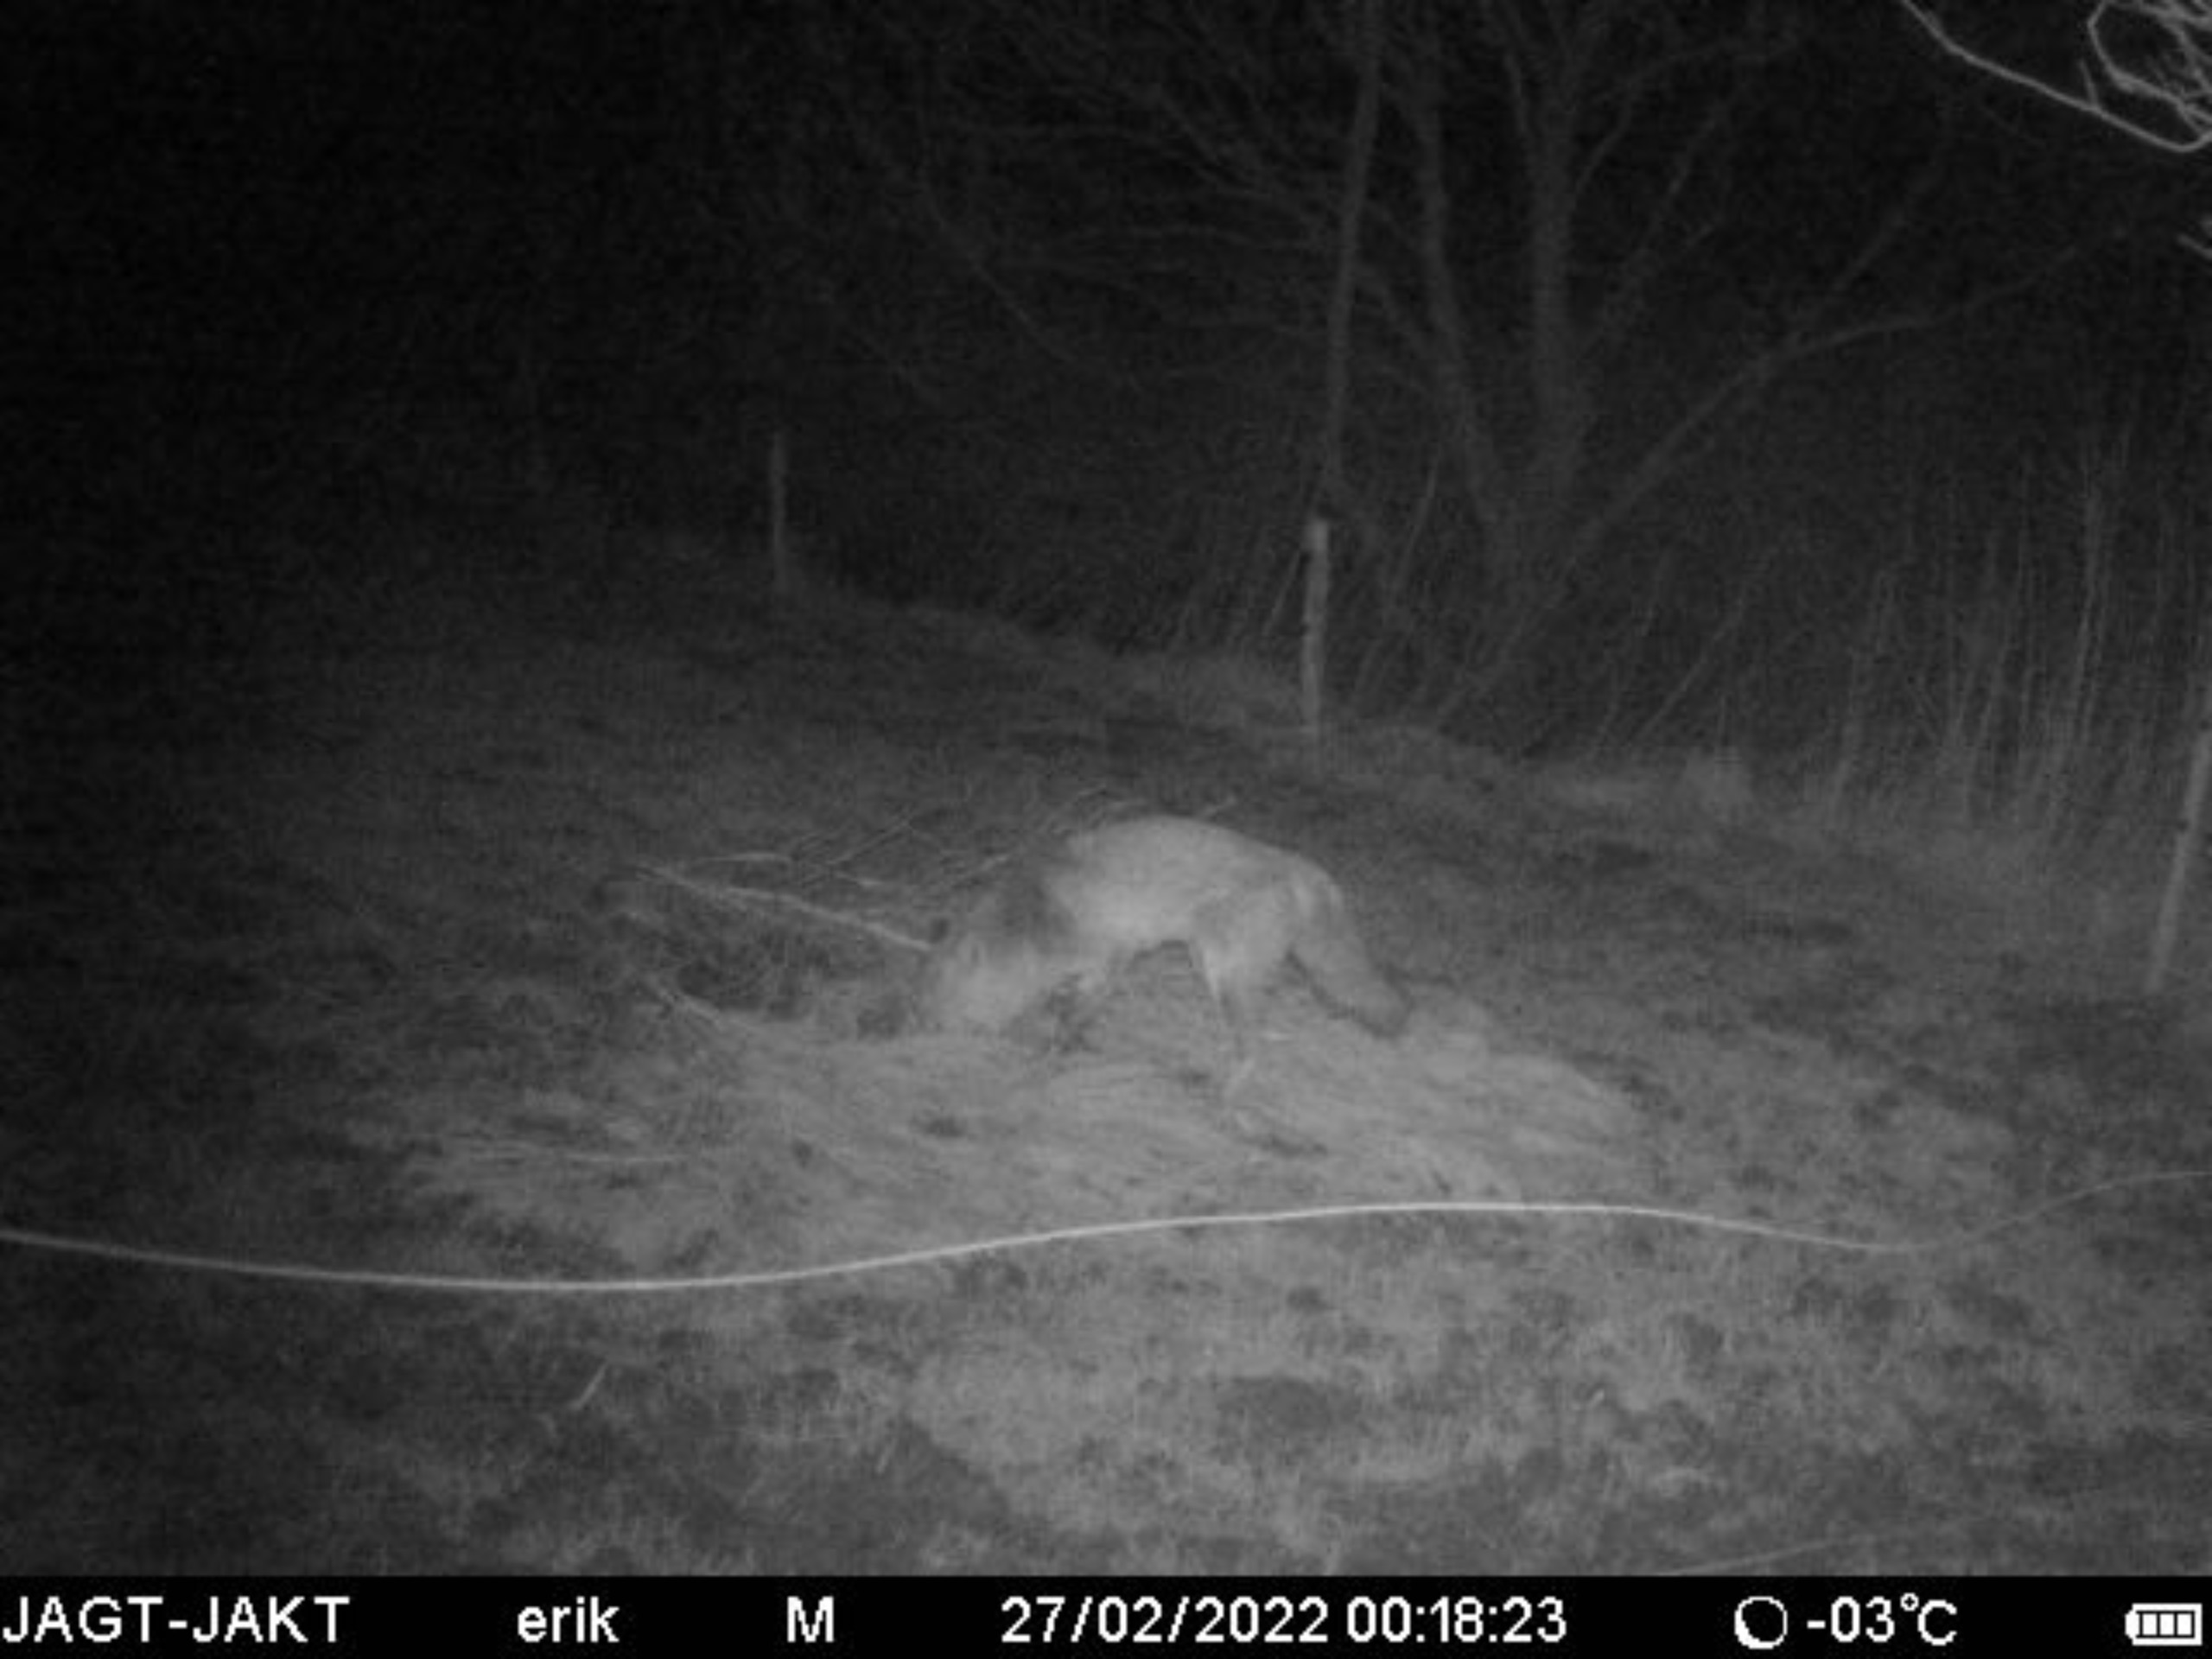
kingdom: Animalia
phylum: Chordata
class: Mammalia
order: Carnivora
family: Canidae
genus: Vulpes
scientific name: Vulpes vulpes
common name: Ræv
